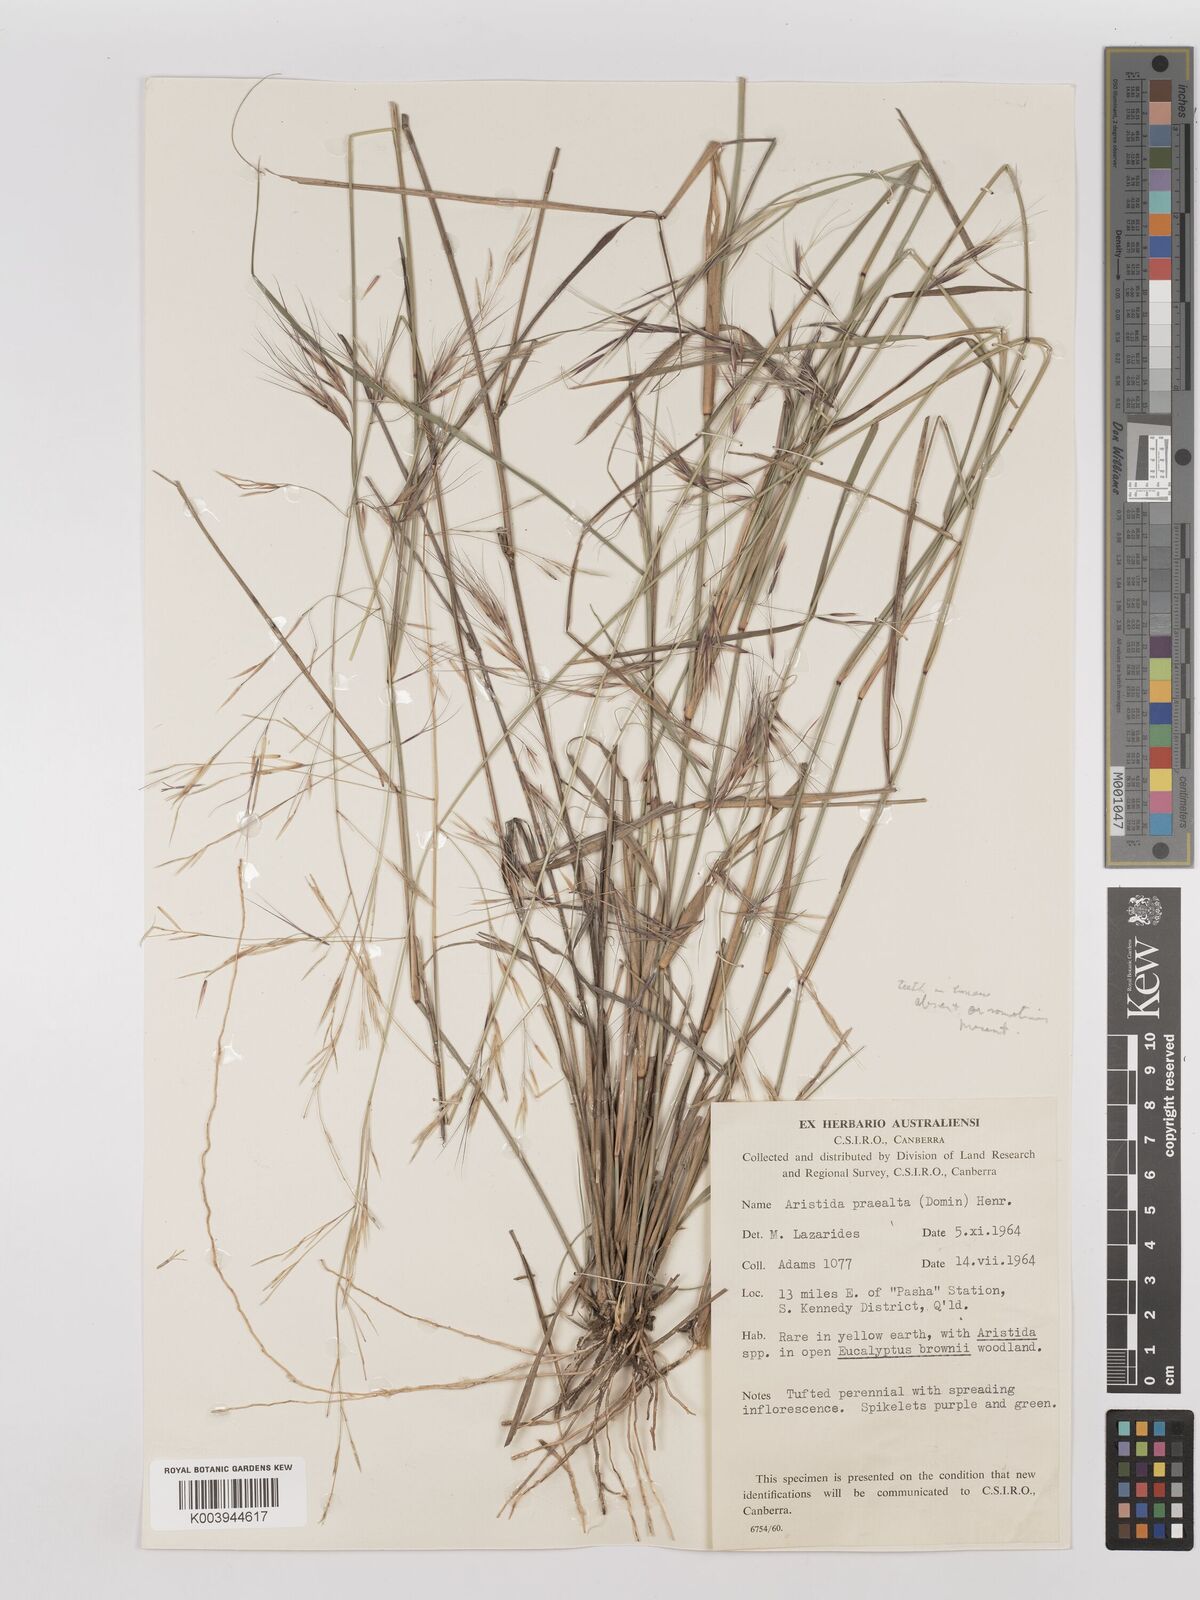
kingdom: Plantae
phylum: Tracheophyta
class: Liliopsida
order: Poales
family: Poaceae
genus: Aristida
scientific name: Aristida calycina
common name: Dark wire grass
